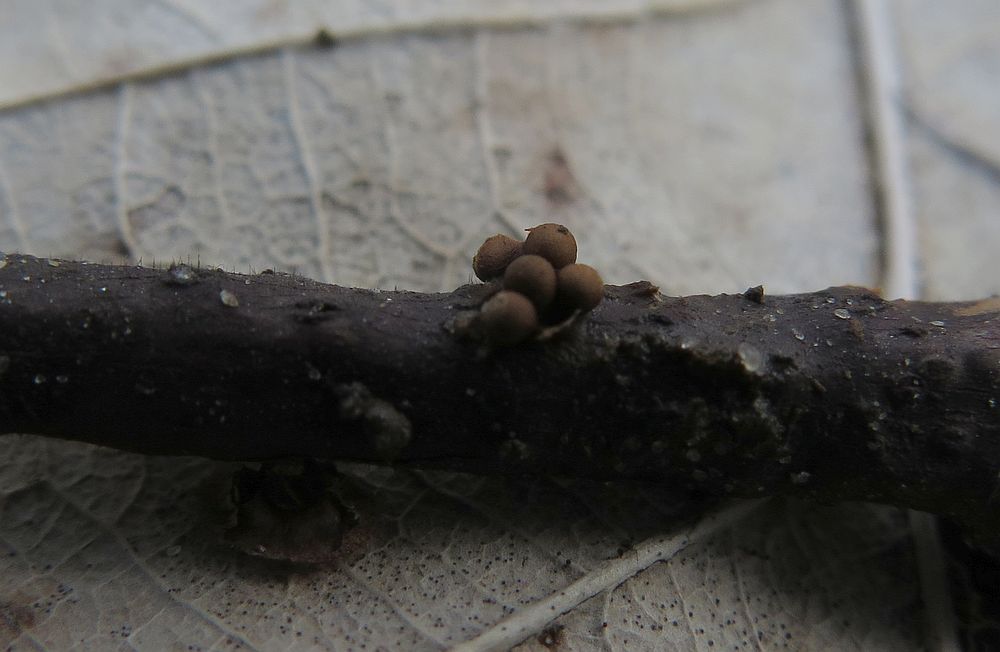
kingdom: Protozoa
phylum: Mycetozoa
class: Myxomycetes
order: Trichiales
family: Trichiaceae
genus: Trichia
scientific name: Trichia contorta
